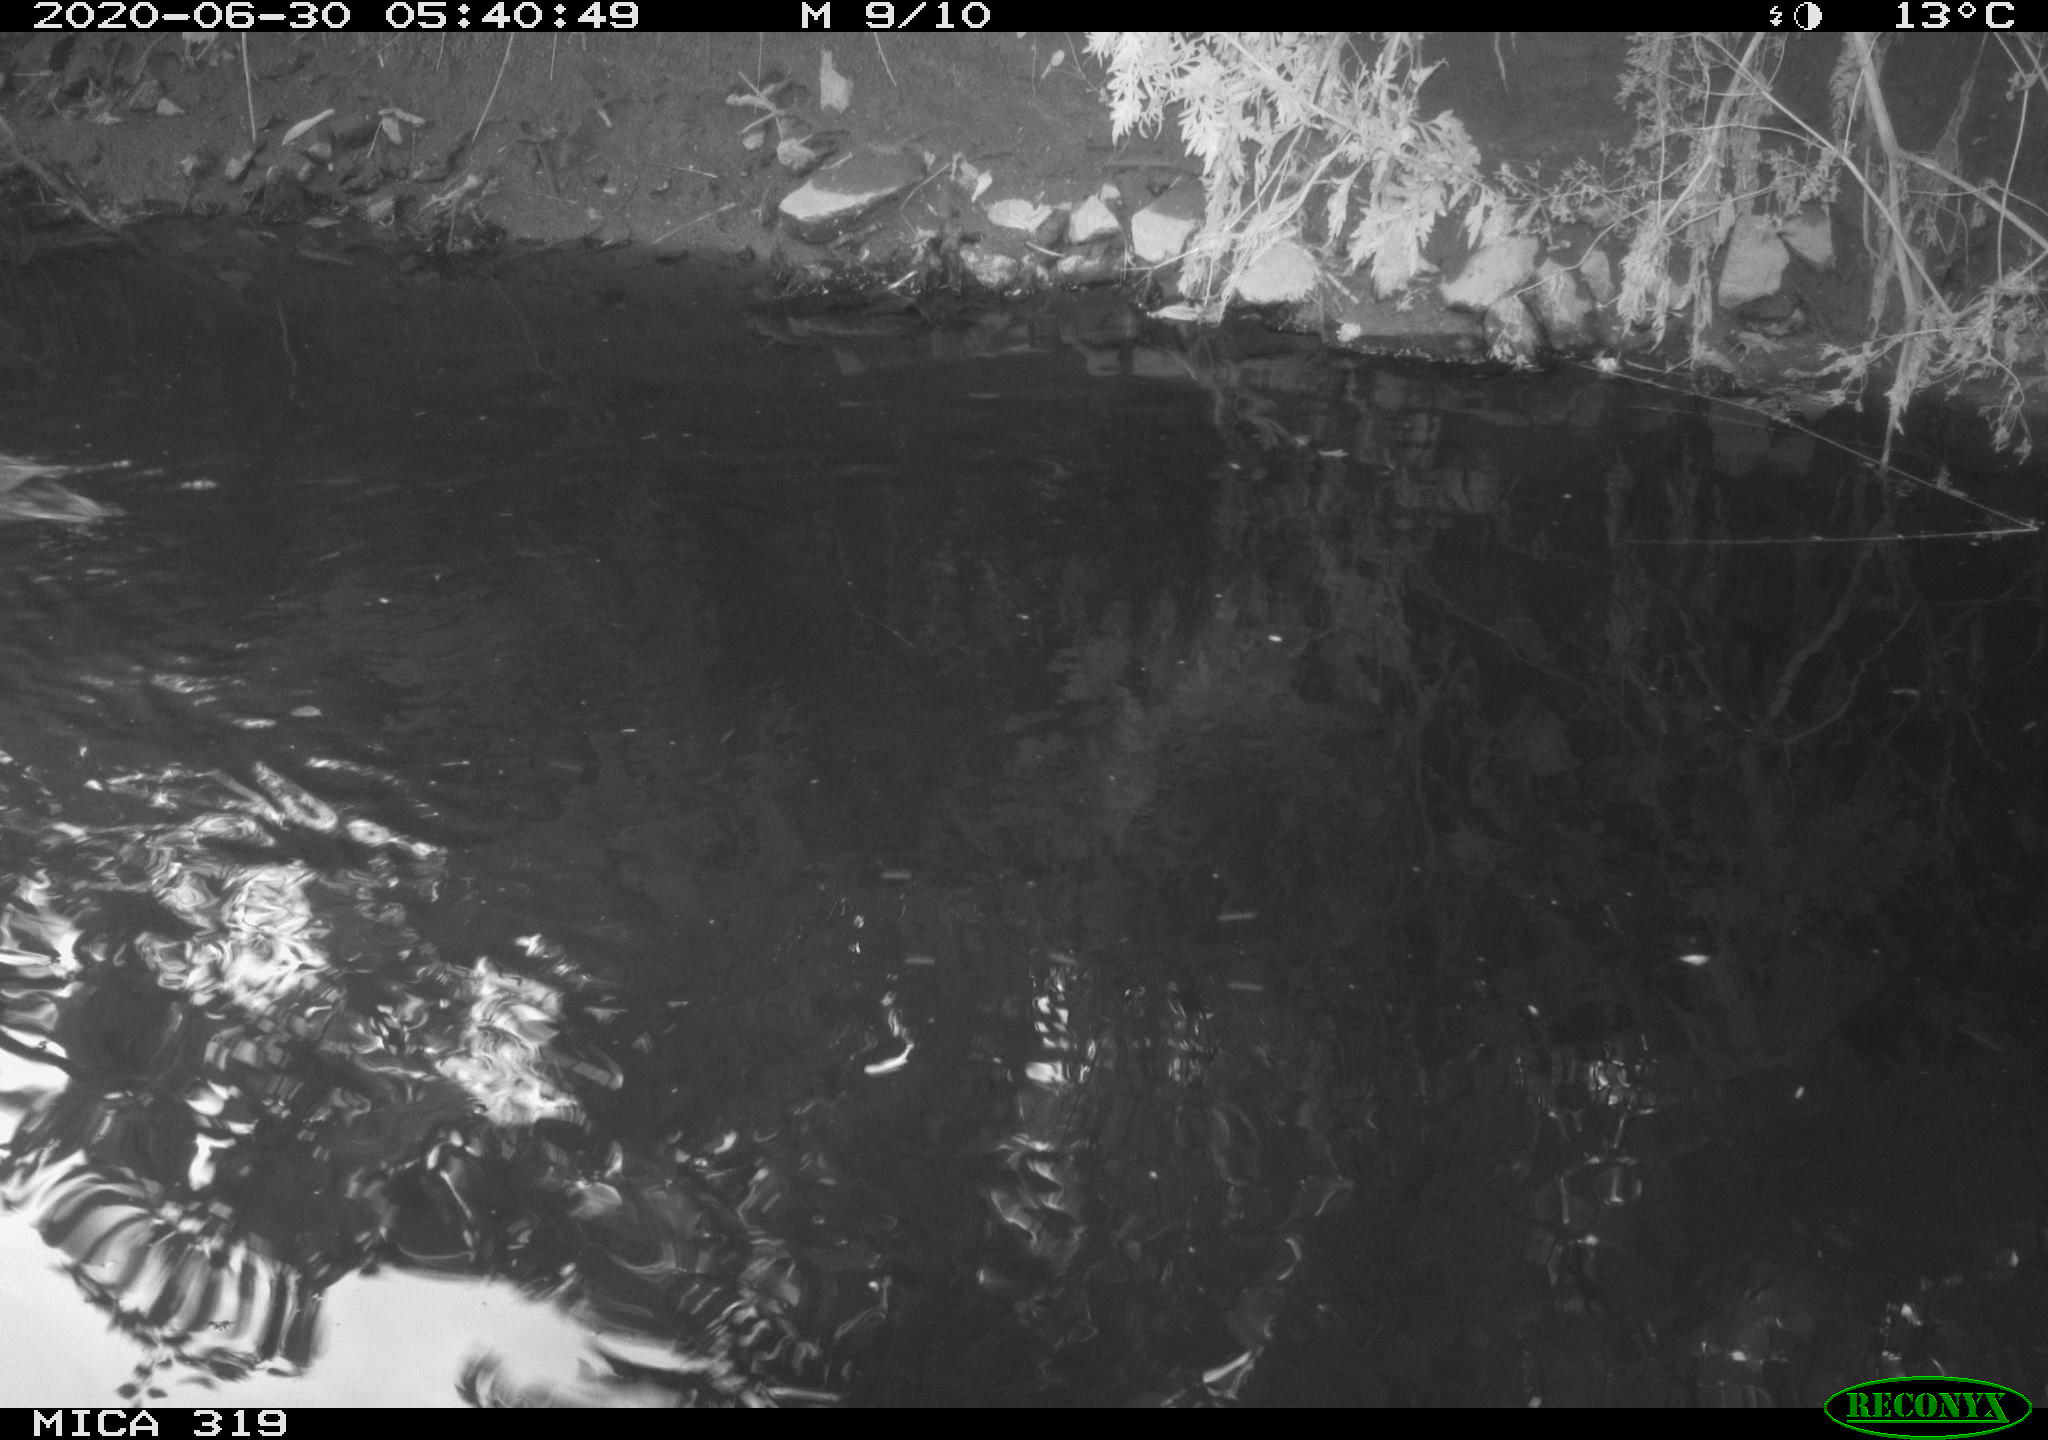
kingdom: Animalia
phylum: Chordata
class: Aves
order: Anseriformes
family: Anatidae
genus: Anas
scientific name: Anas platyrhynchos
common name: Mallard
